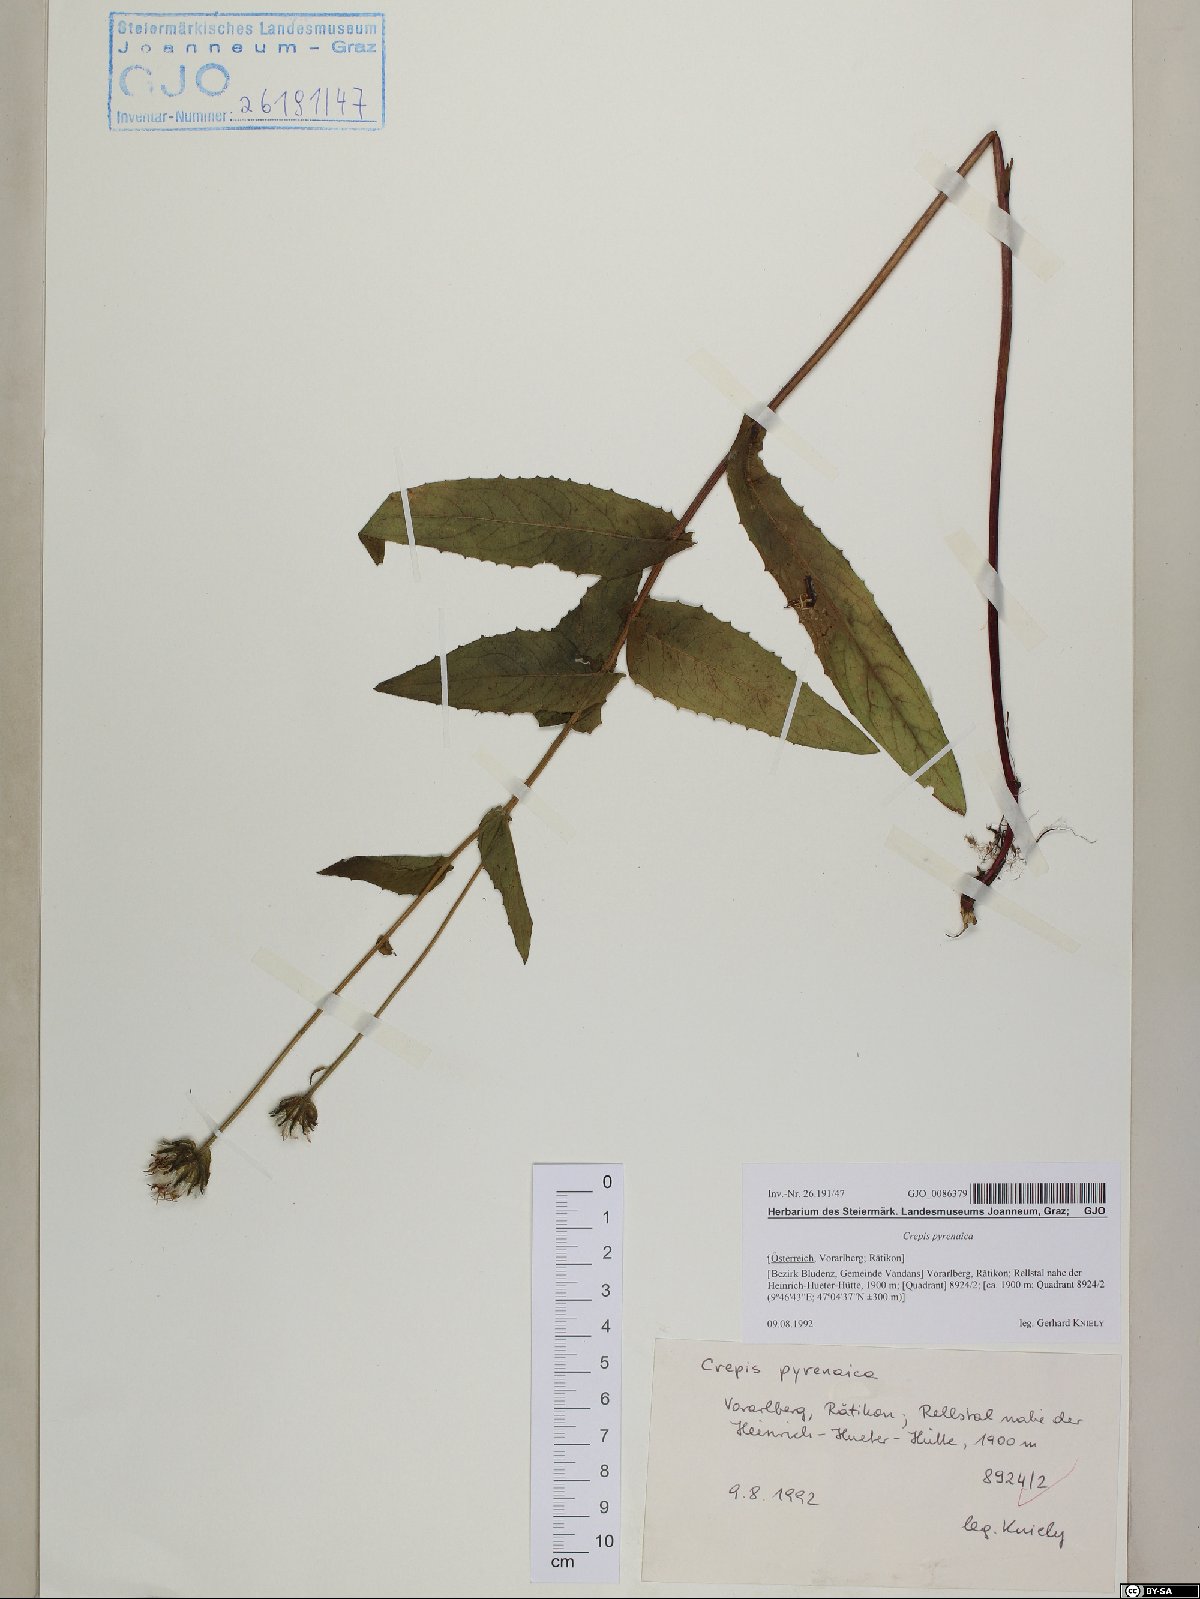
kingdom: Plantae
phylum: Tracheophyta
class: Magnoliopsida
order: Asterales
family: Asteraceae
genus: Crepis
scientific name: Crepis pyrenaica
